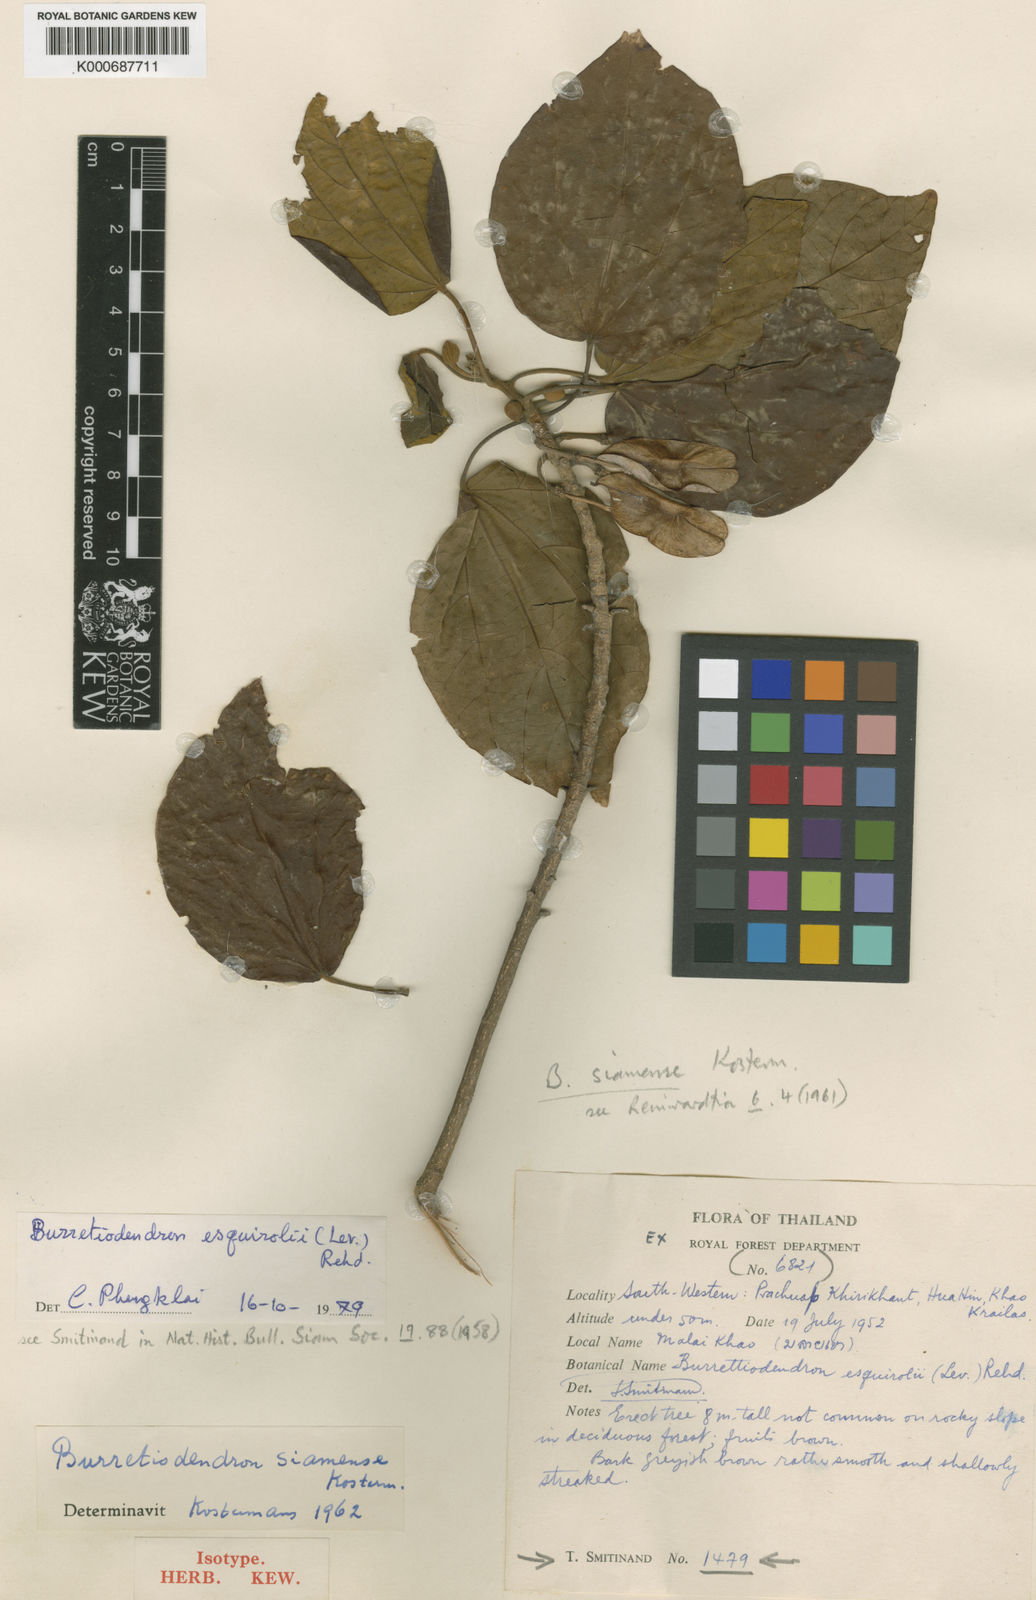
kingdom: Plantae
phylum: Tracheophyta
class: Magnoliopsida
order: Malvales
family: Malvaceae
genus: Burretiodendron
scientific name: Burretiodendron esquirolii
